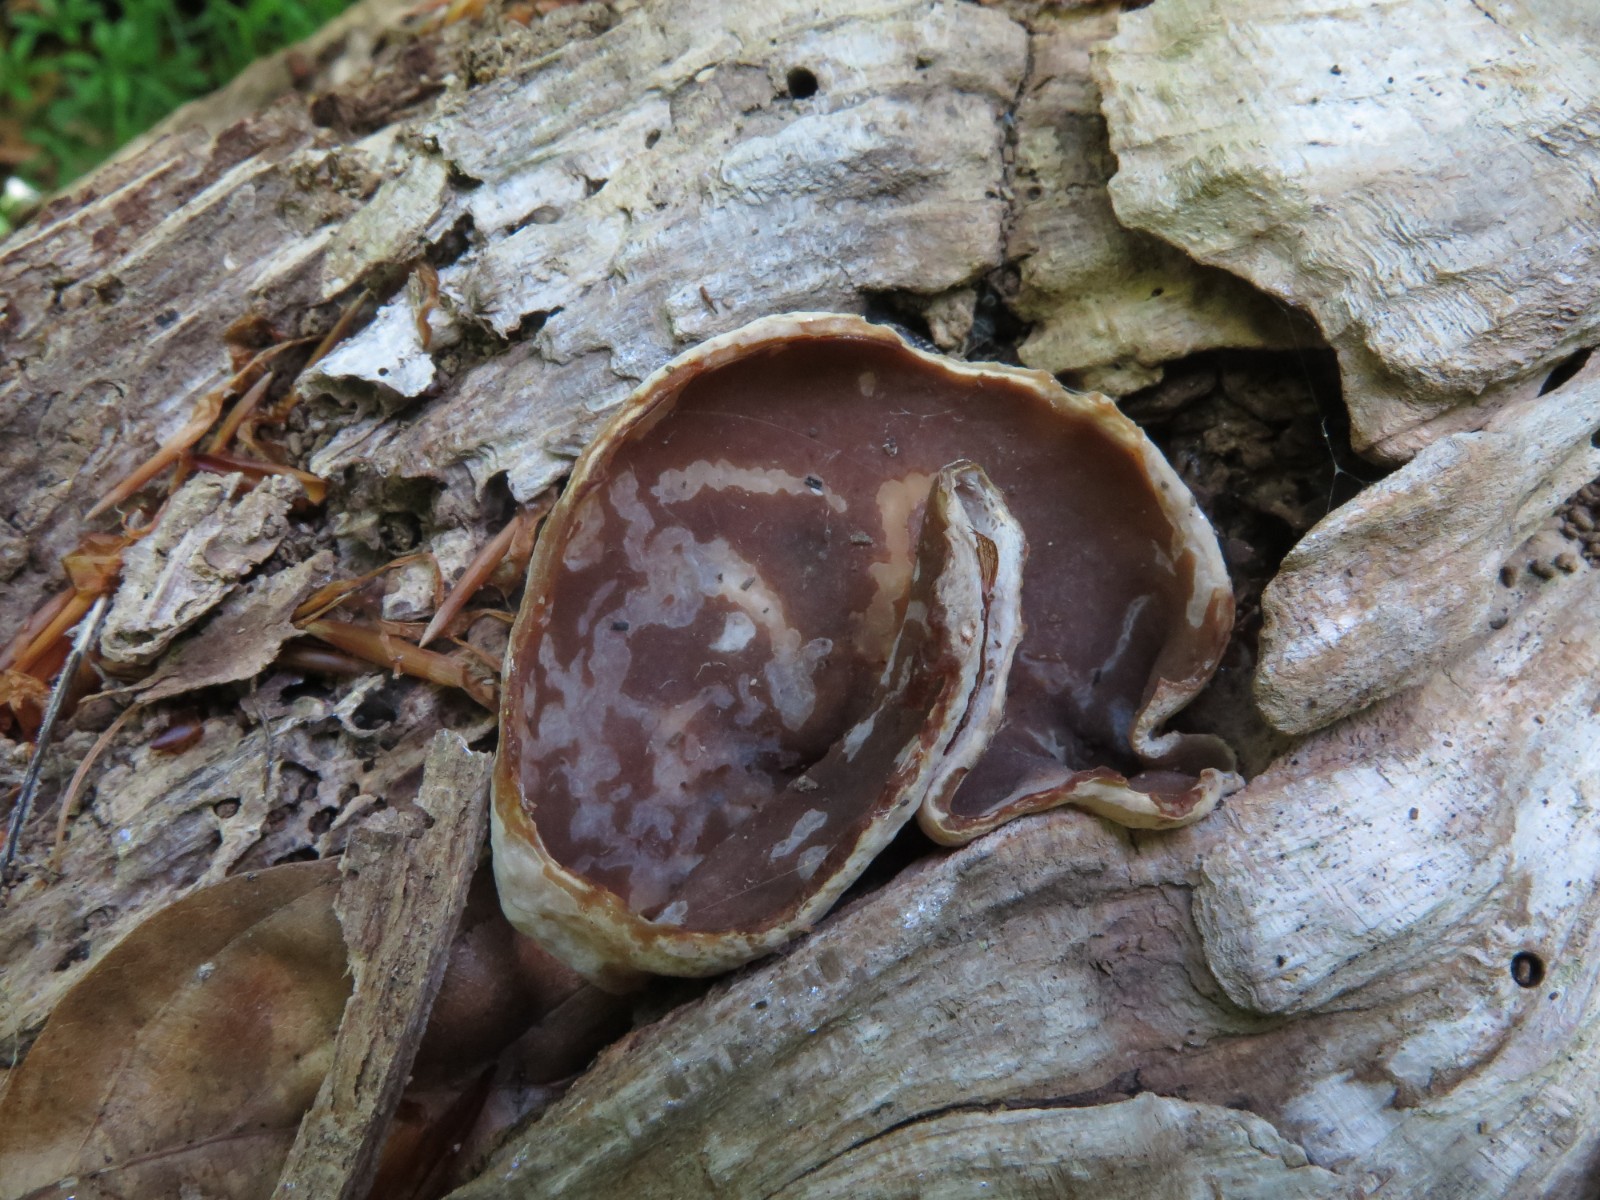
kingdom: Fungi
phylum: Ascomycota
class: Pezizomycetes
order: Pezizales
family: Pezizaceae
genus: Peziza
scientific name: Peziza varia
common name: Ved-bægersvamp
